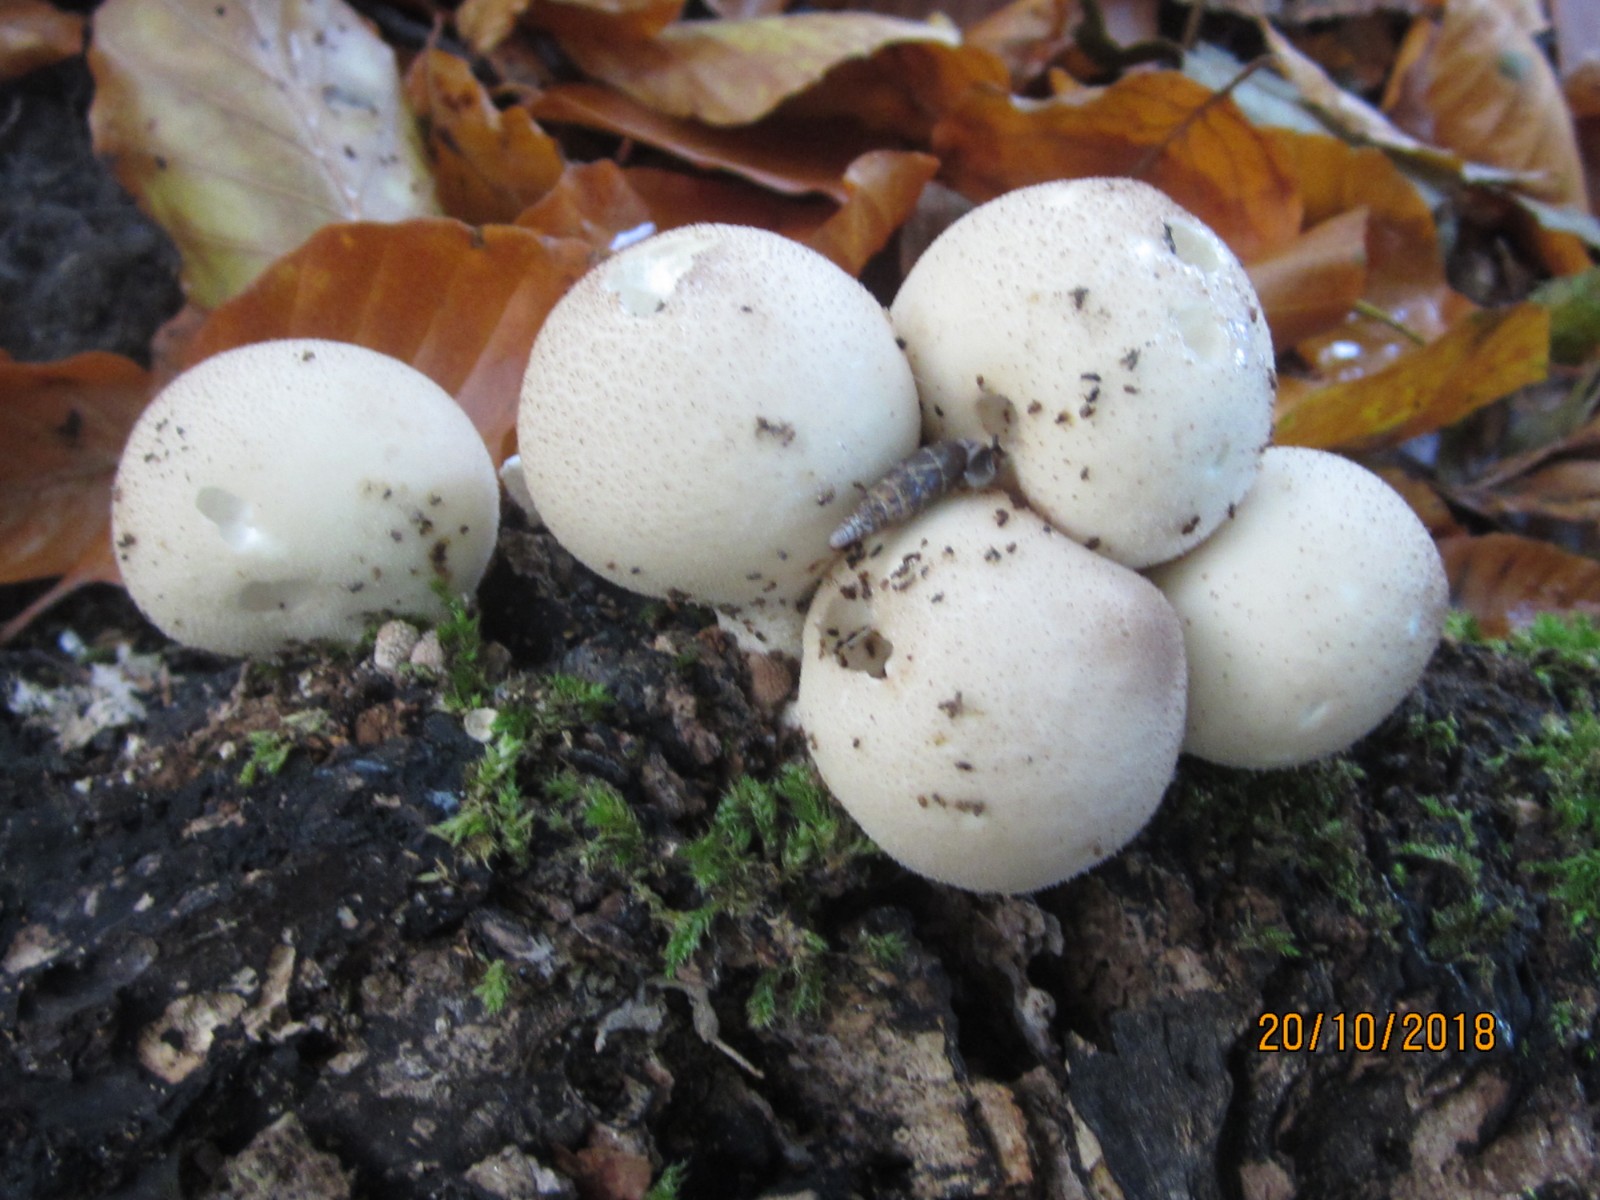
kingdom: Fungi
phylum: Basidiomycota
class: Agaricomycetes
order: Agaricales
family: Lycoperdaceae
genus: Apioperdon
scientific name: Apioperdon pyriforme
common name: pære-støvbold
